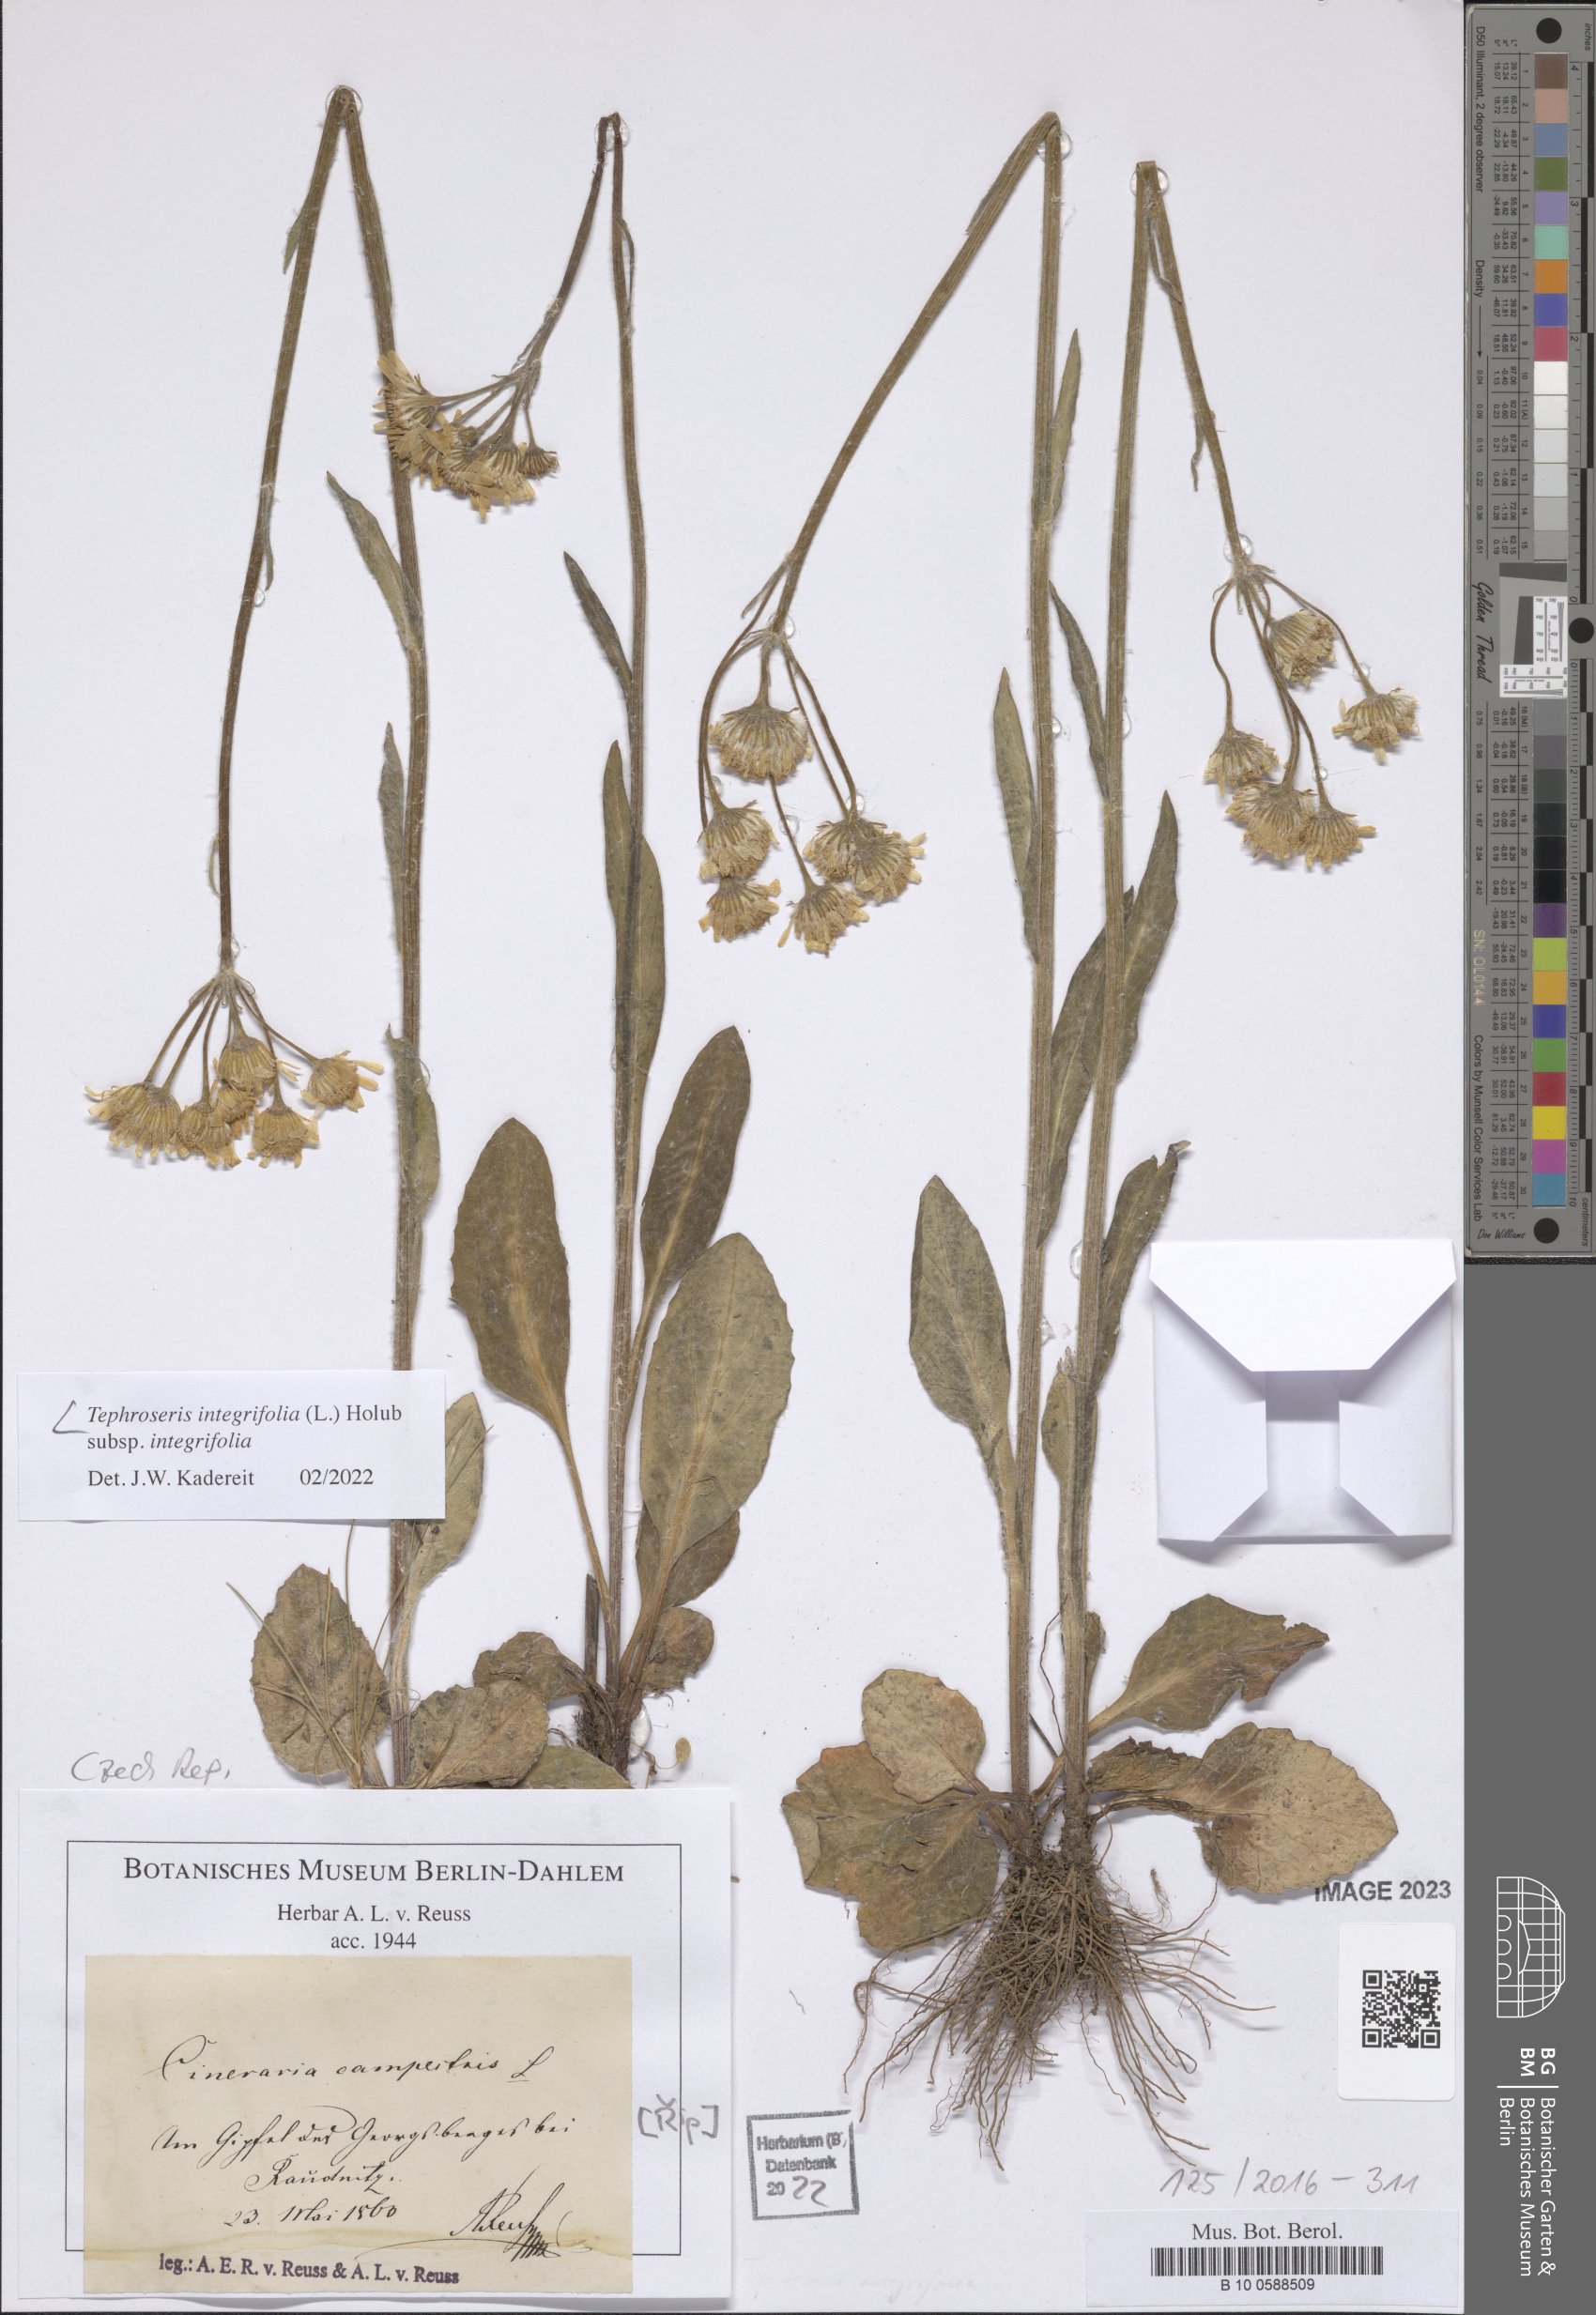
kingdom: Plantae
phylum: Tracheophyta
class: Magnoliopsida
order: Asterales
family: Asteraceae
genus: Tephroseris
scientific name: Tephroseris integrifolia
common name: Field fleawort
